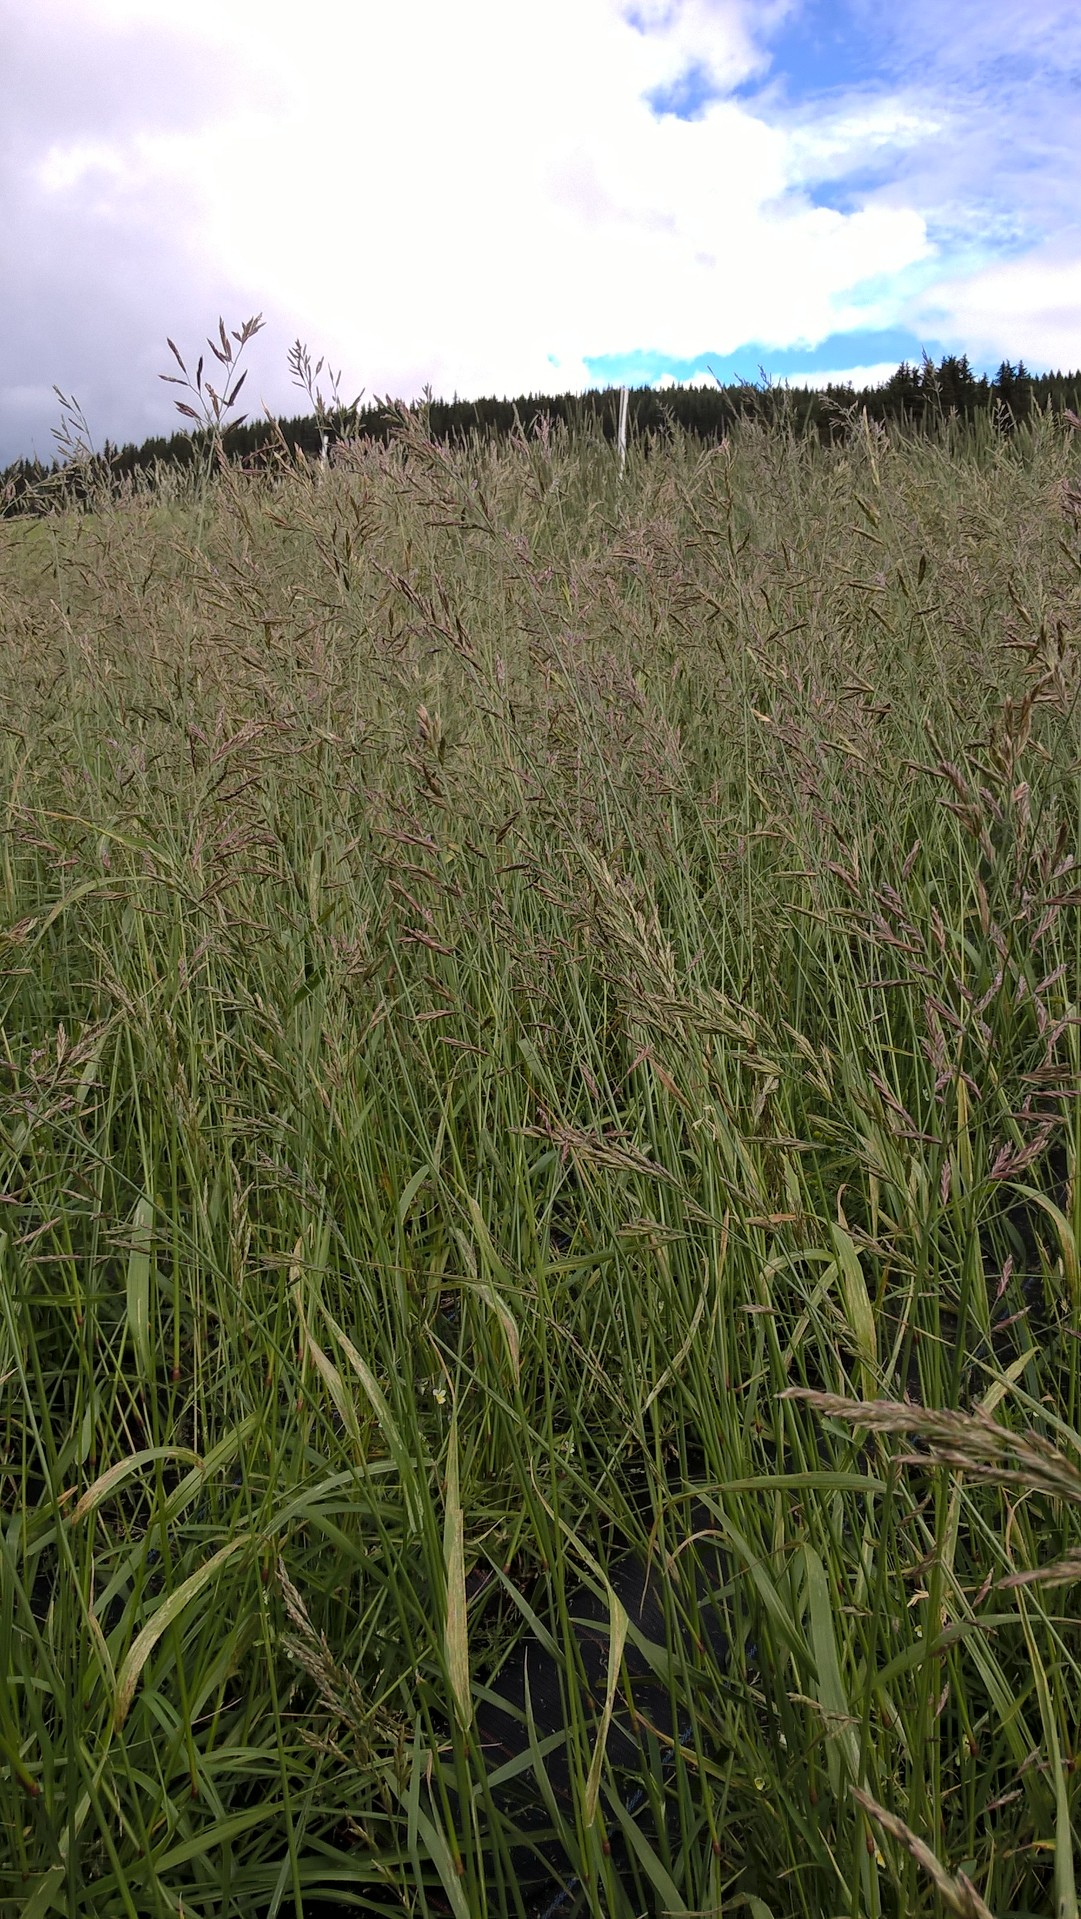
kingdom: Plantae
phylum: Tracheophyta
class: Liliopsida
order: Poales
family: Poaceae
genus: Lolium
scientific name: Lolium pratense
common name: Dover grass
